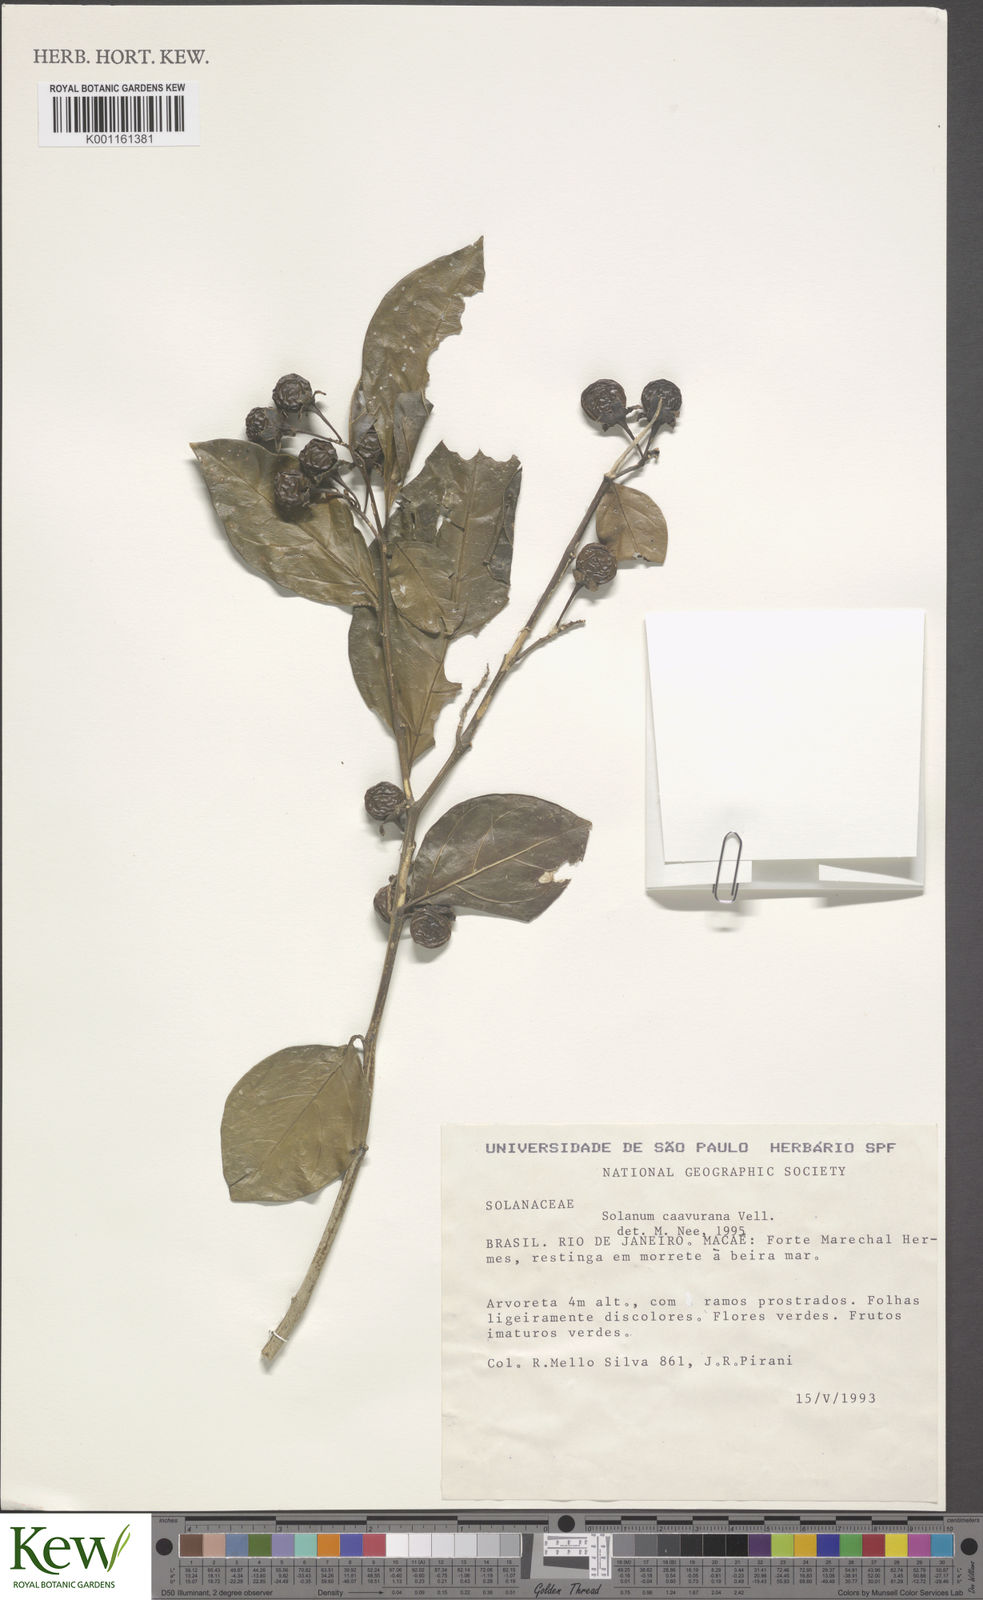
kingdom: Plantae
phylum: Tracheophyta
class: Magnoliopsida
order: Solanales
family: Solanaceae
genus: Solanum
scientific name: Solanum caavurana
